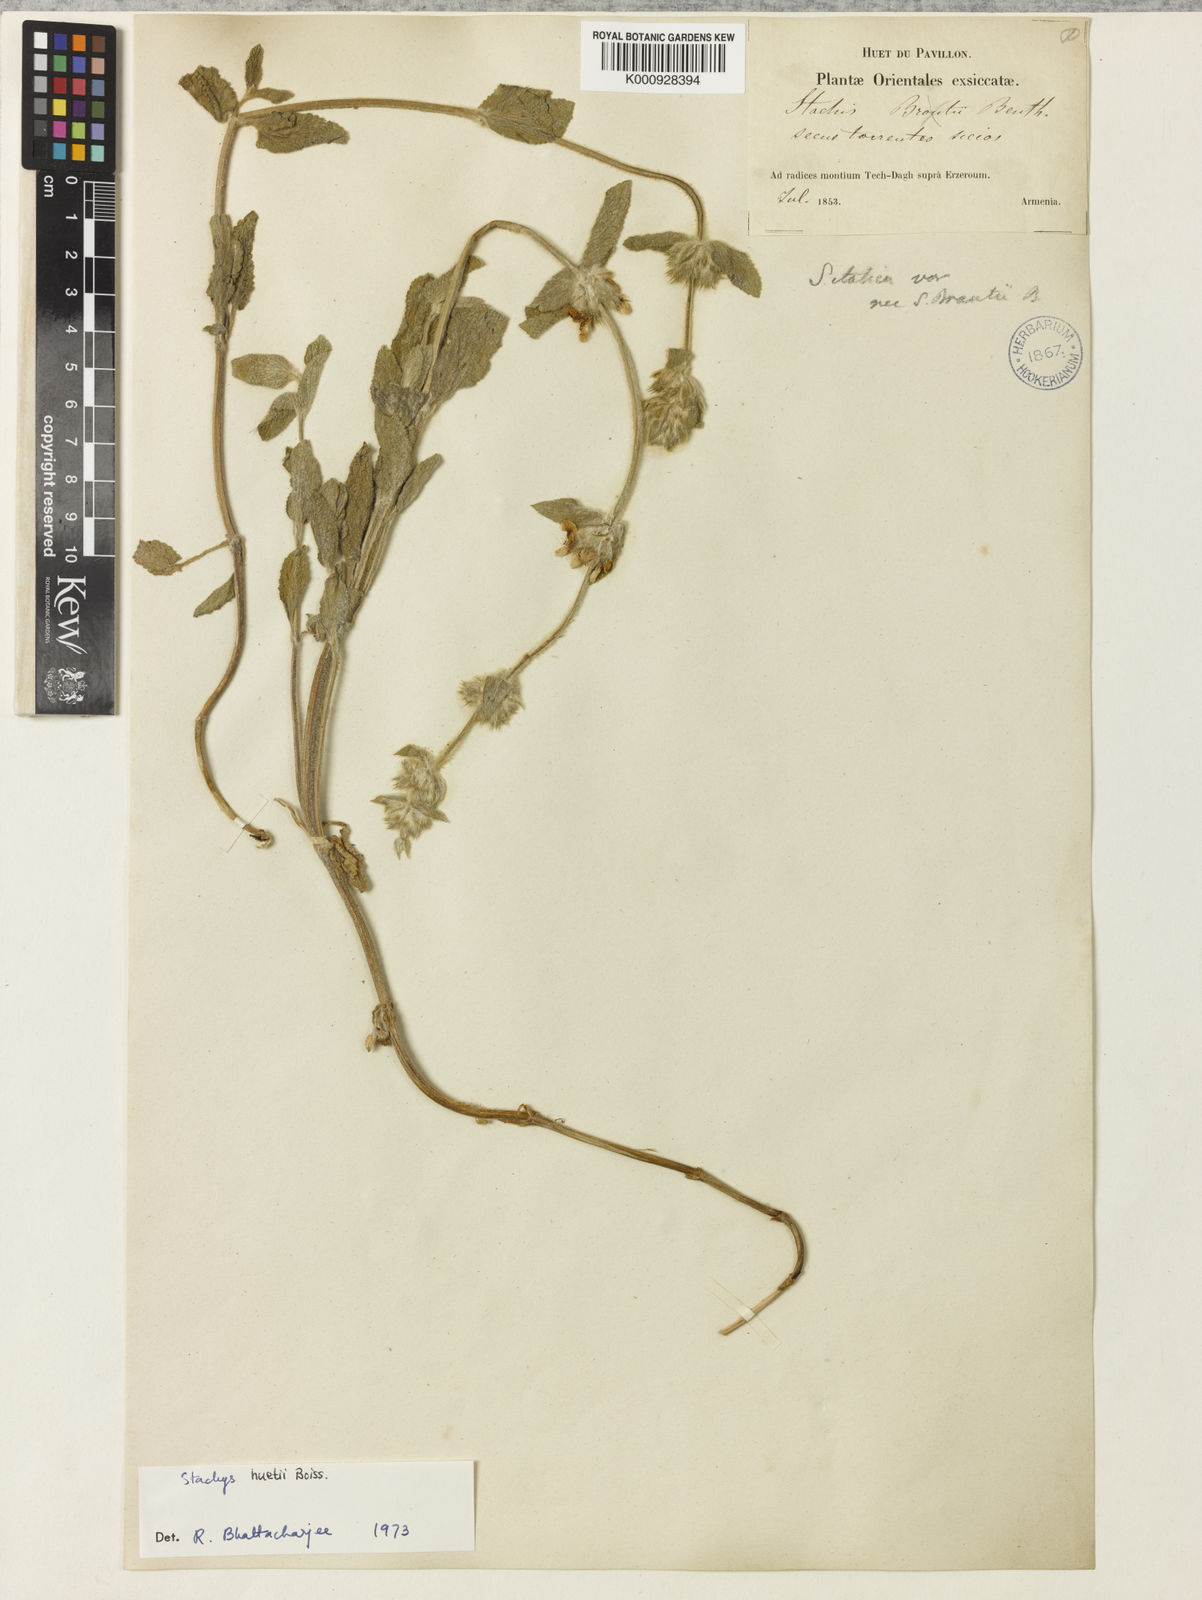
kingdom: Plantae
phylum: Tracheophyta
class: Magnoliopsida
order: Lamiales
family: Lamiaceae
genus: Stachys
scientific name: Stachys huetii
